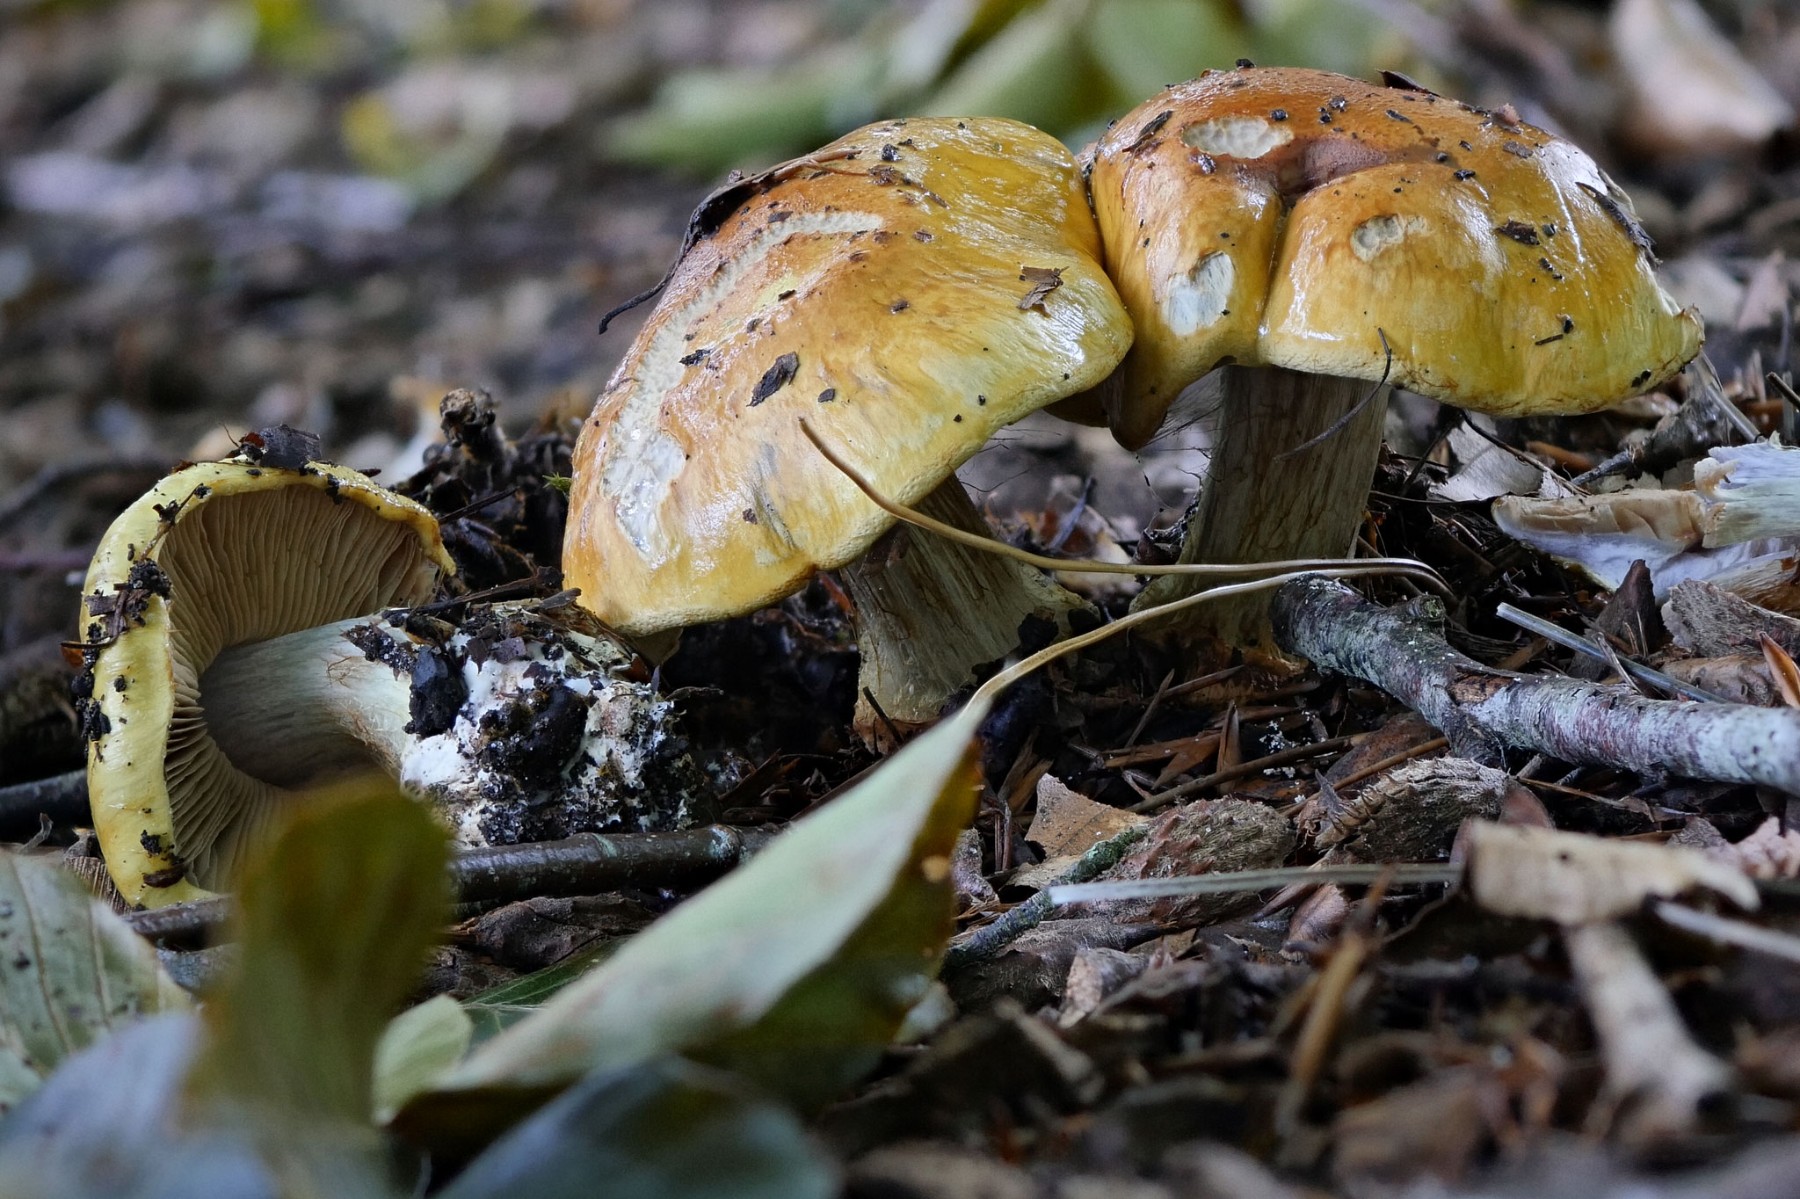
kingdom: Fungi
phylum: Basidiomycota
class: Agaricomycetes
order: Agaricales
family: Cortinariaceae
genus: Cortinarius
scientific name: Cortinarius bergeronii
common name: prægtig slørhat
